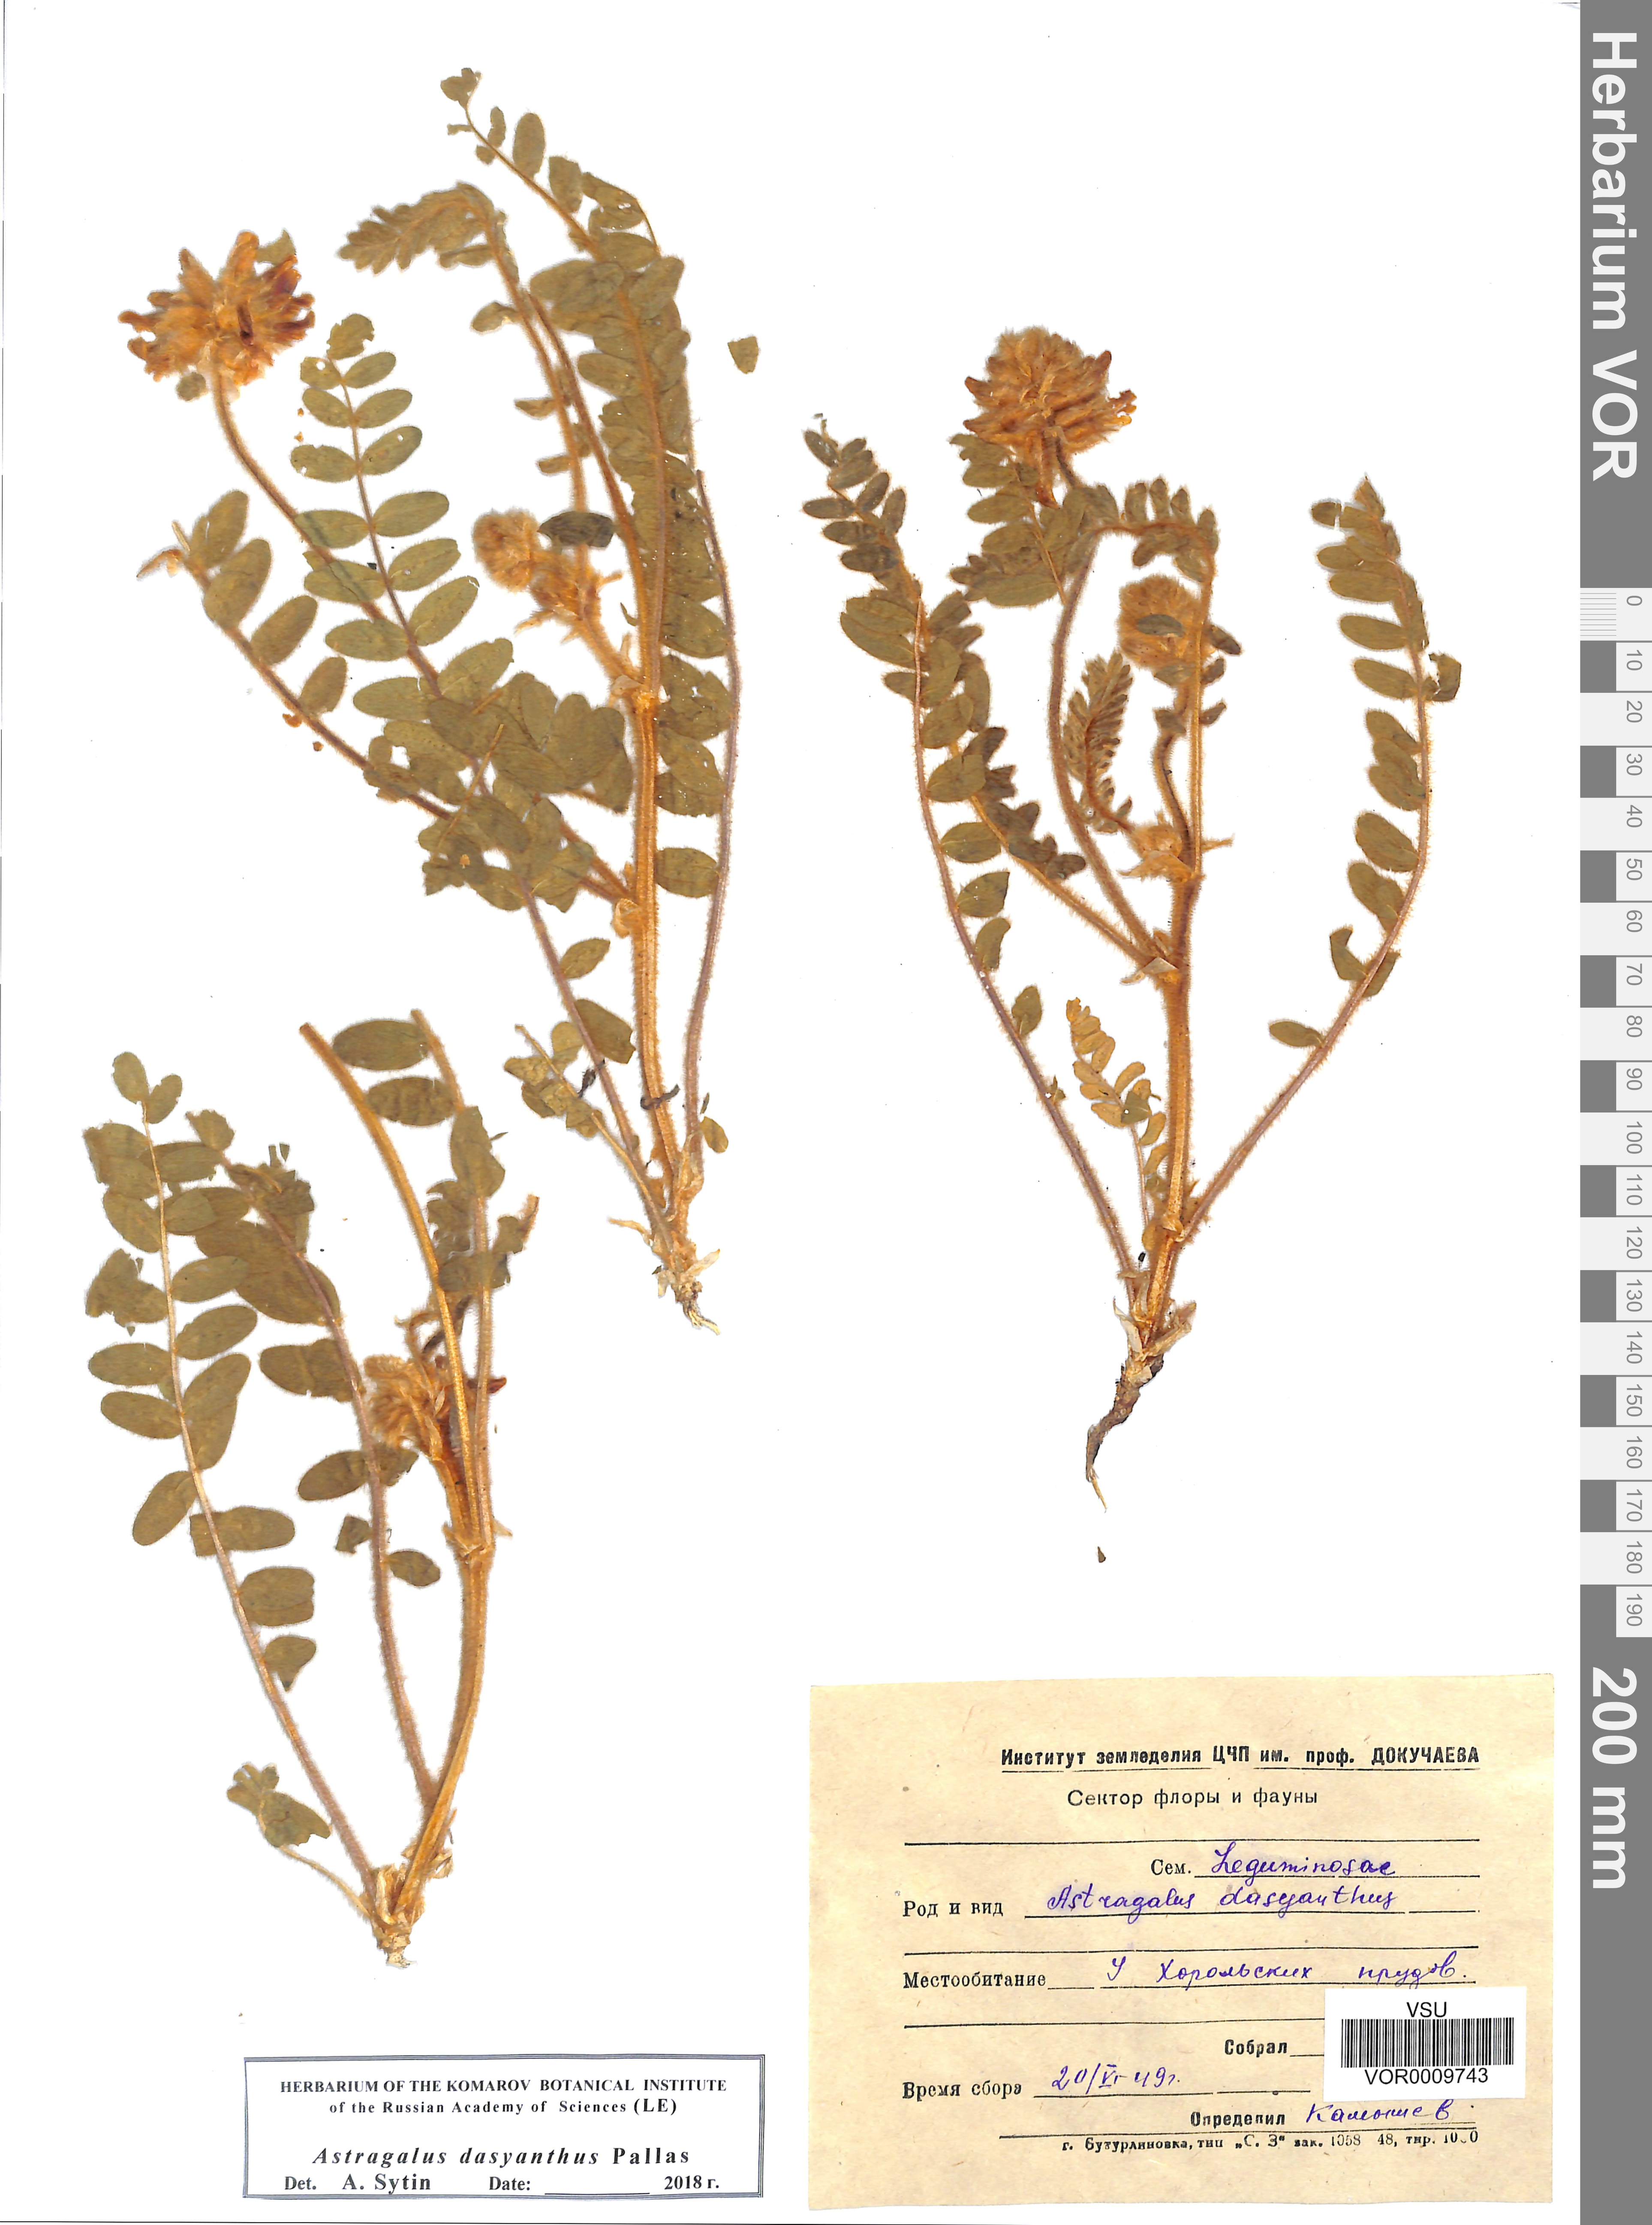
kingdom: Plantae
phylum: Tracheophyta
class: Magnoliopsida
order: Fabales
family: Fabaceae
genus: Astragalus
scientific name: Astragalus dasyanthus
